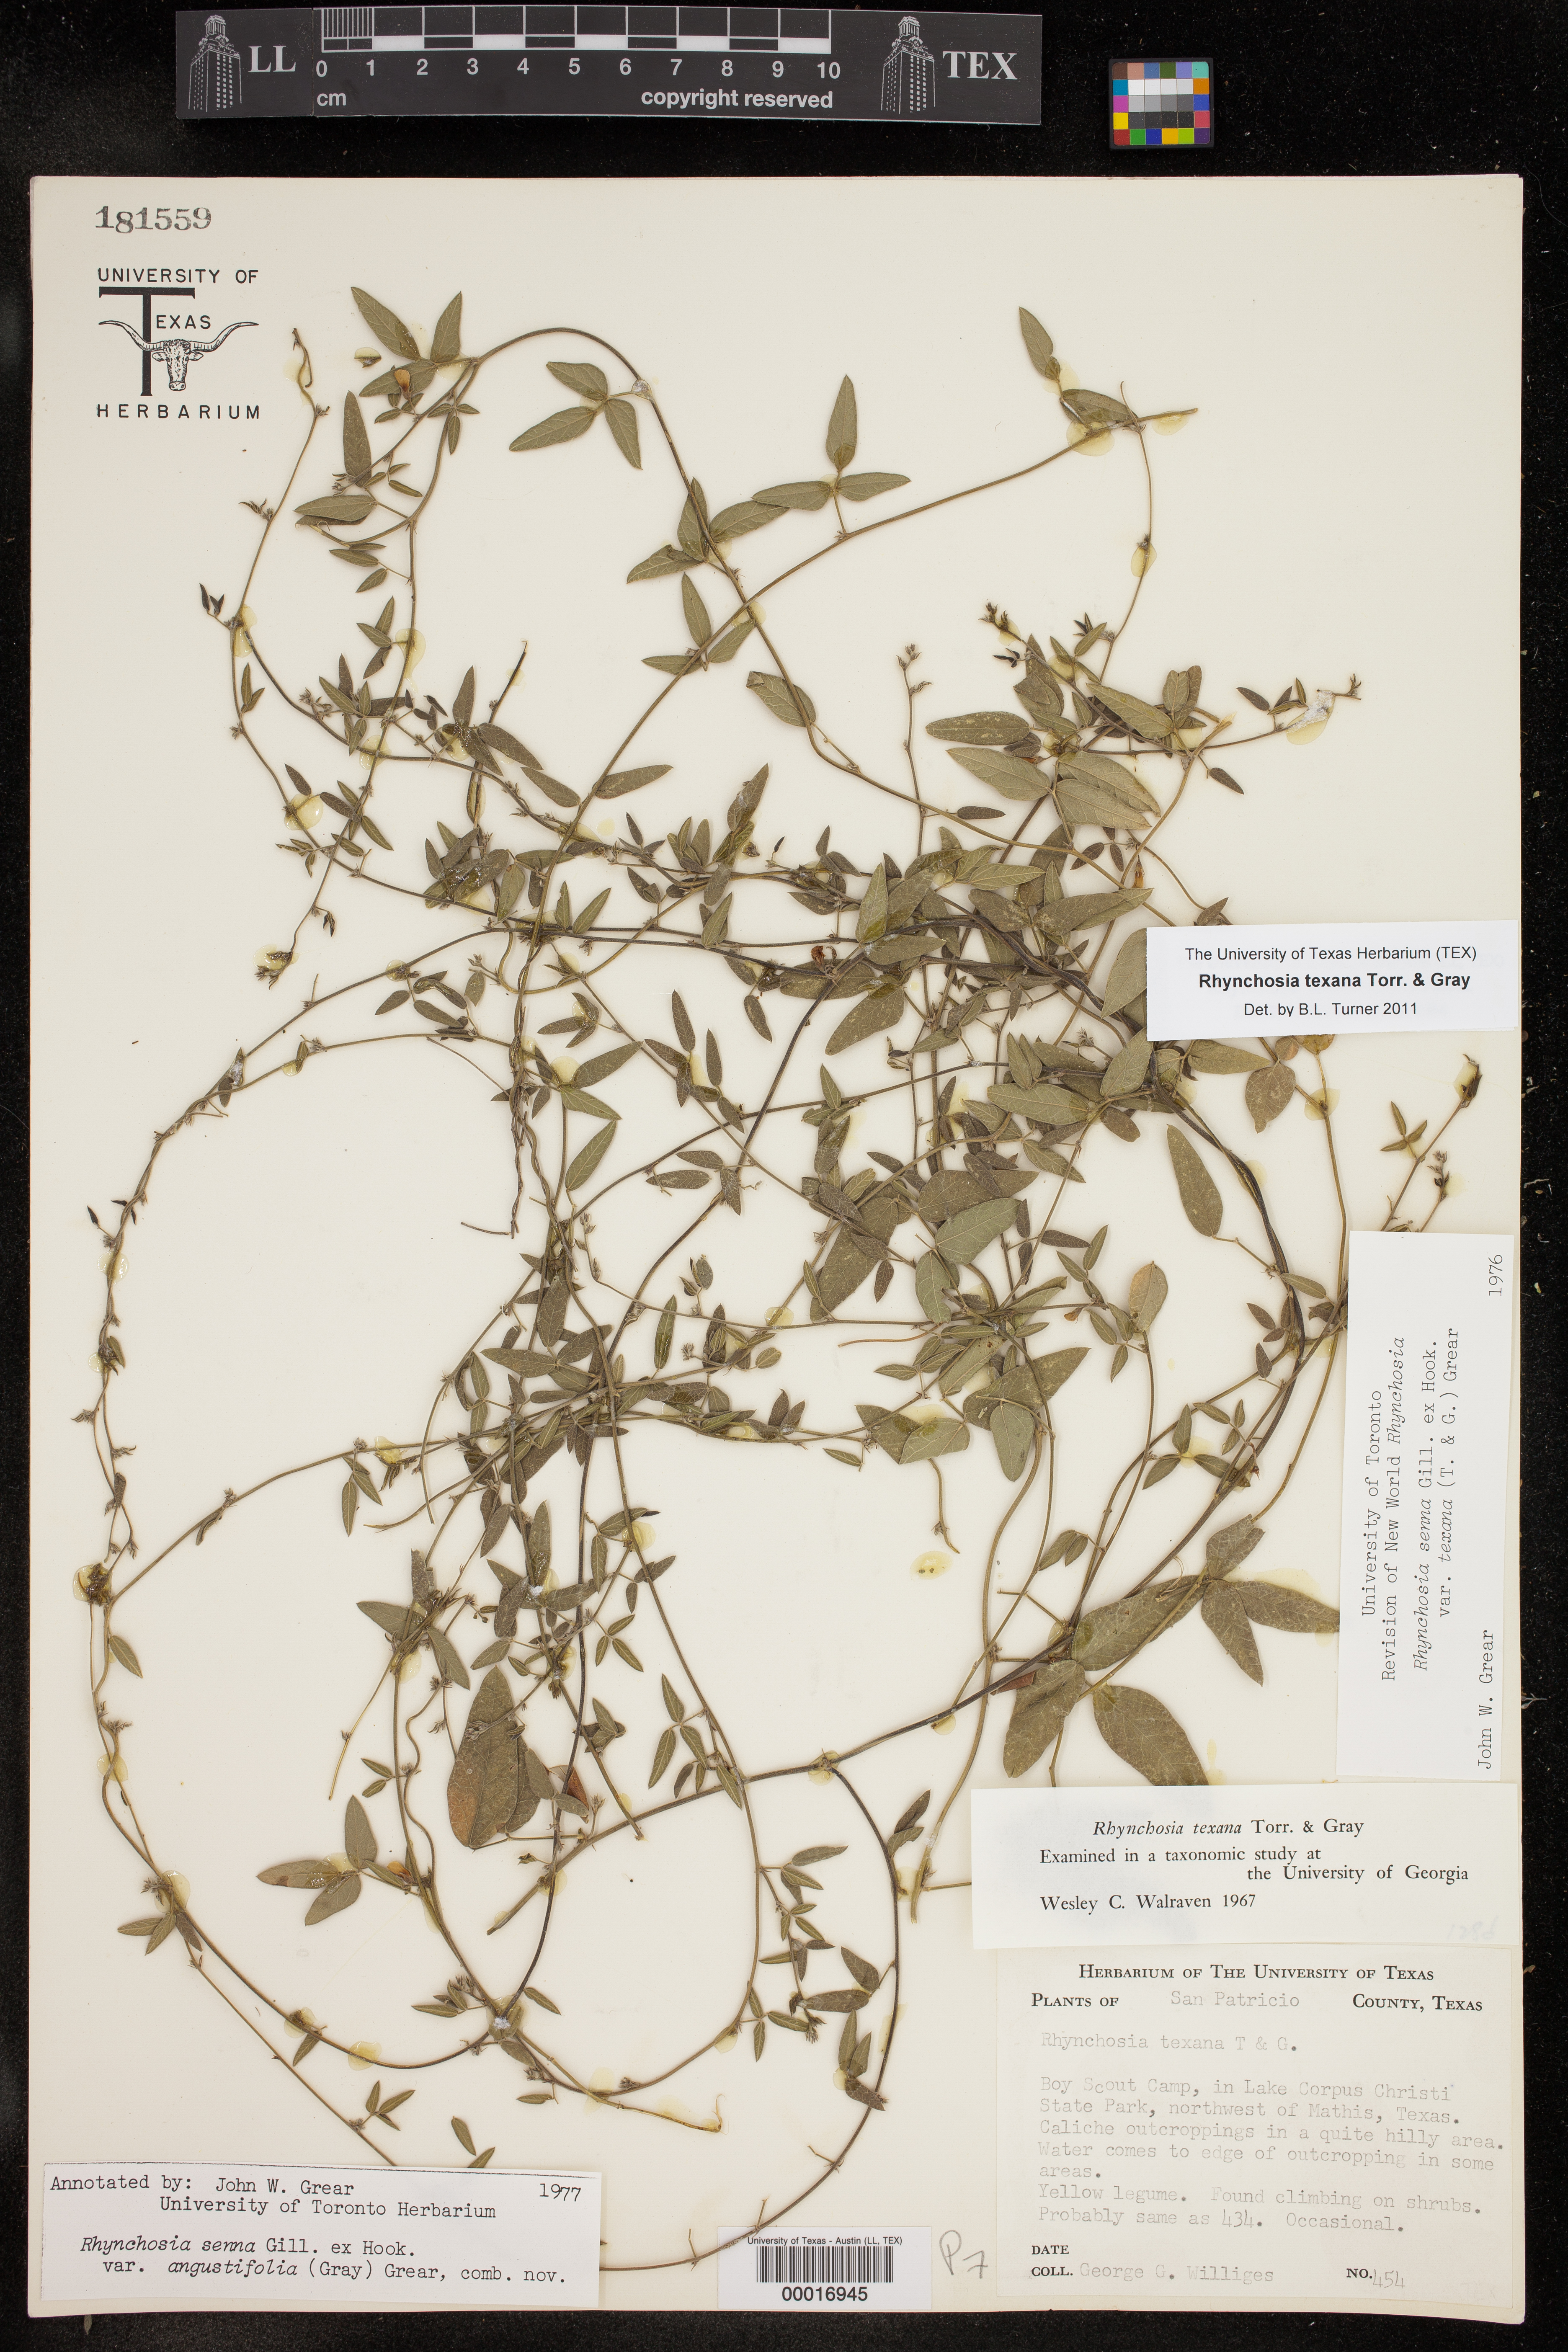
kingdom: Plantae
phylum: Tracheophyta
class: Magnoliopsida
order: Fabales
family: Fabaceae
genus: Rhynchosia
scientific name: Rhynchosia senna
